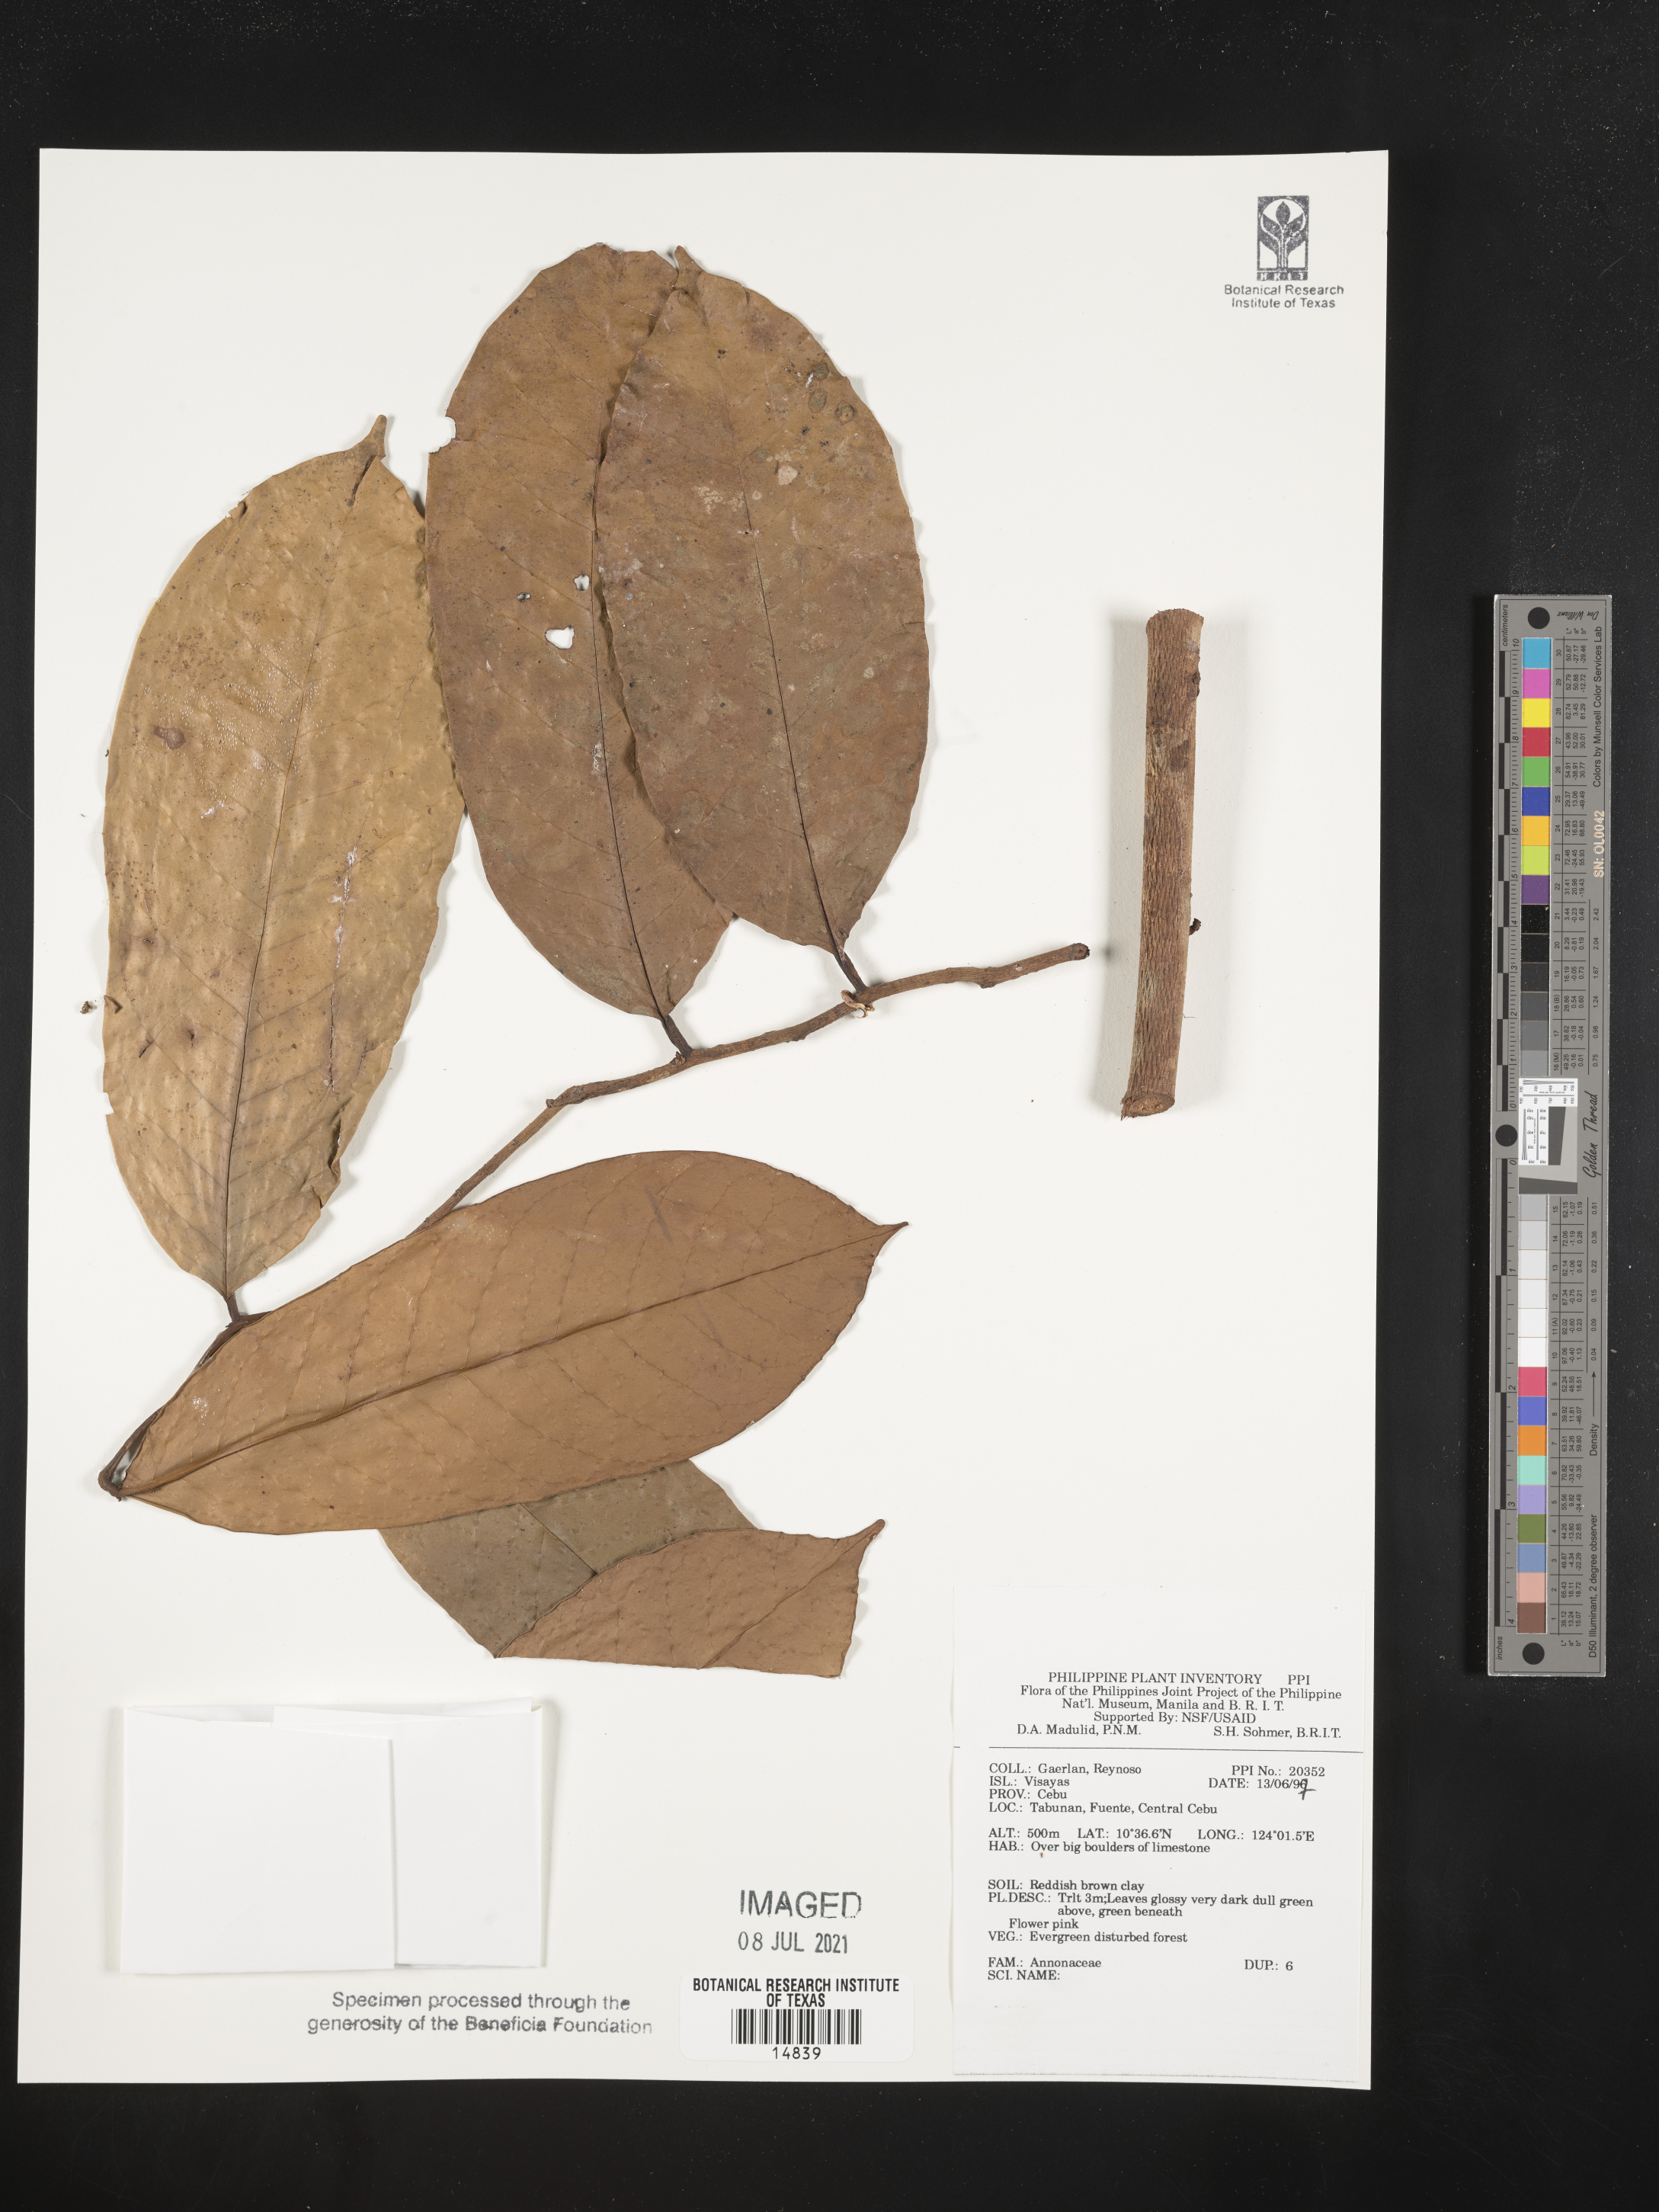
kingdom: Plantae
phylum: Tracheophyta
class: Magnoliopsida
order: Magnoliales
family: Annonaceae
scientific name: Annonaceae
